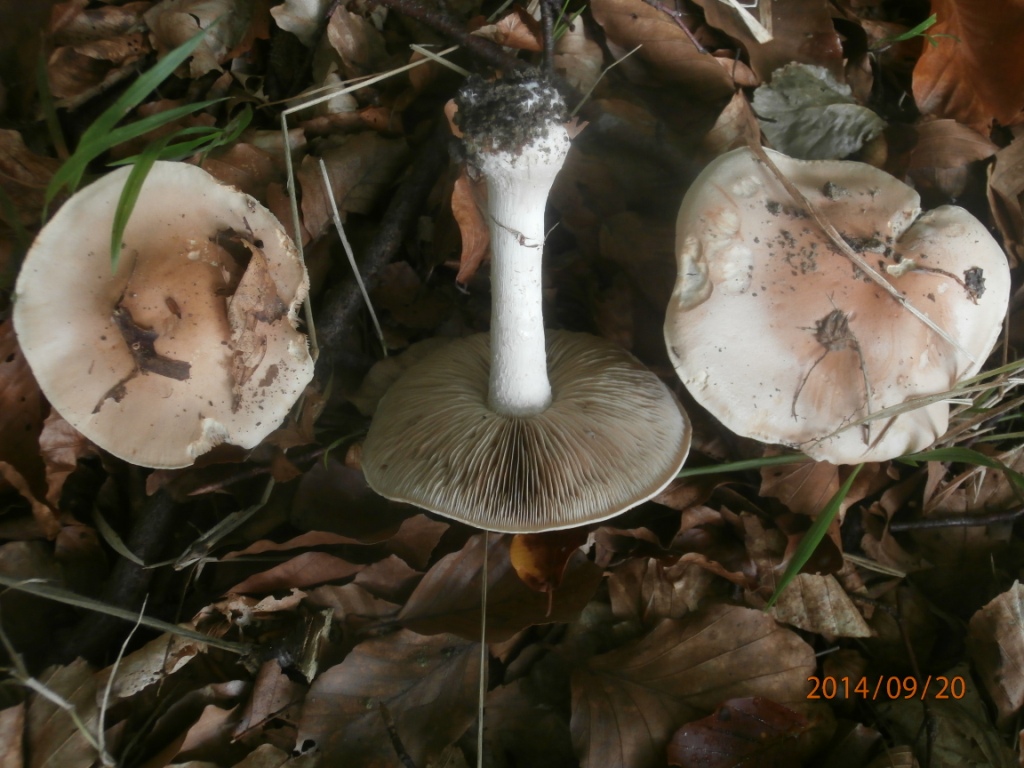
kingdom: Fungi
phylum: Basidiomycota
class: Agaricomycetes
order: Agaricales
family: Hymenogastraceae
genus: Hebeloma
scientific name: Hebeloma sinapizans
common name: ræddike-tåreblad
